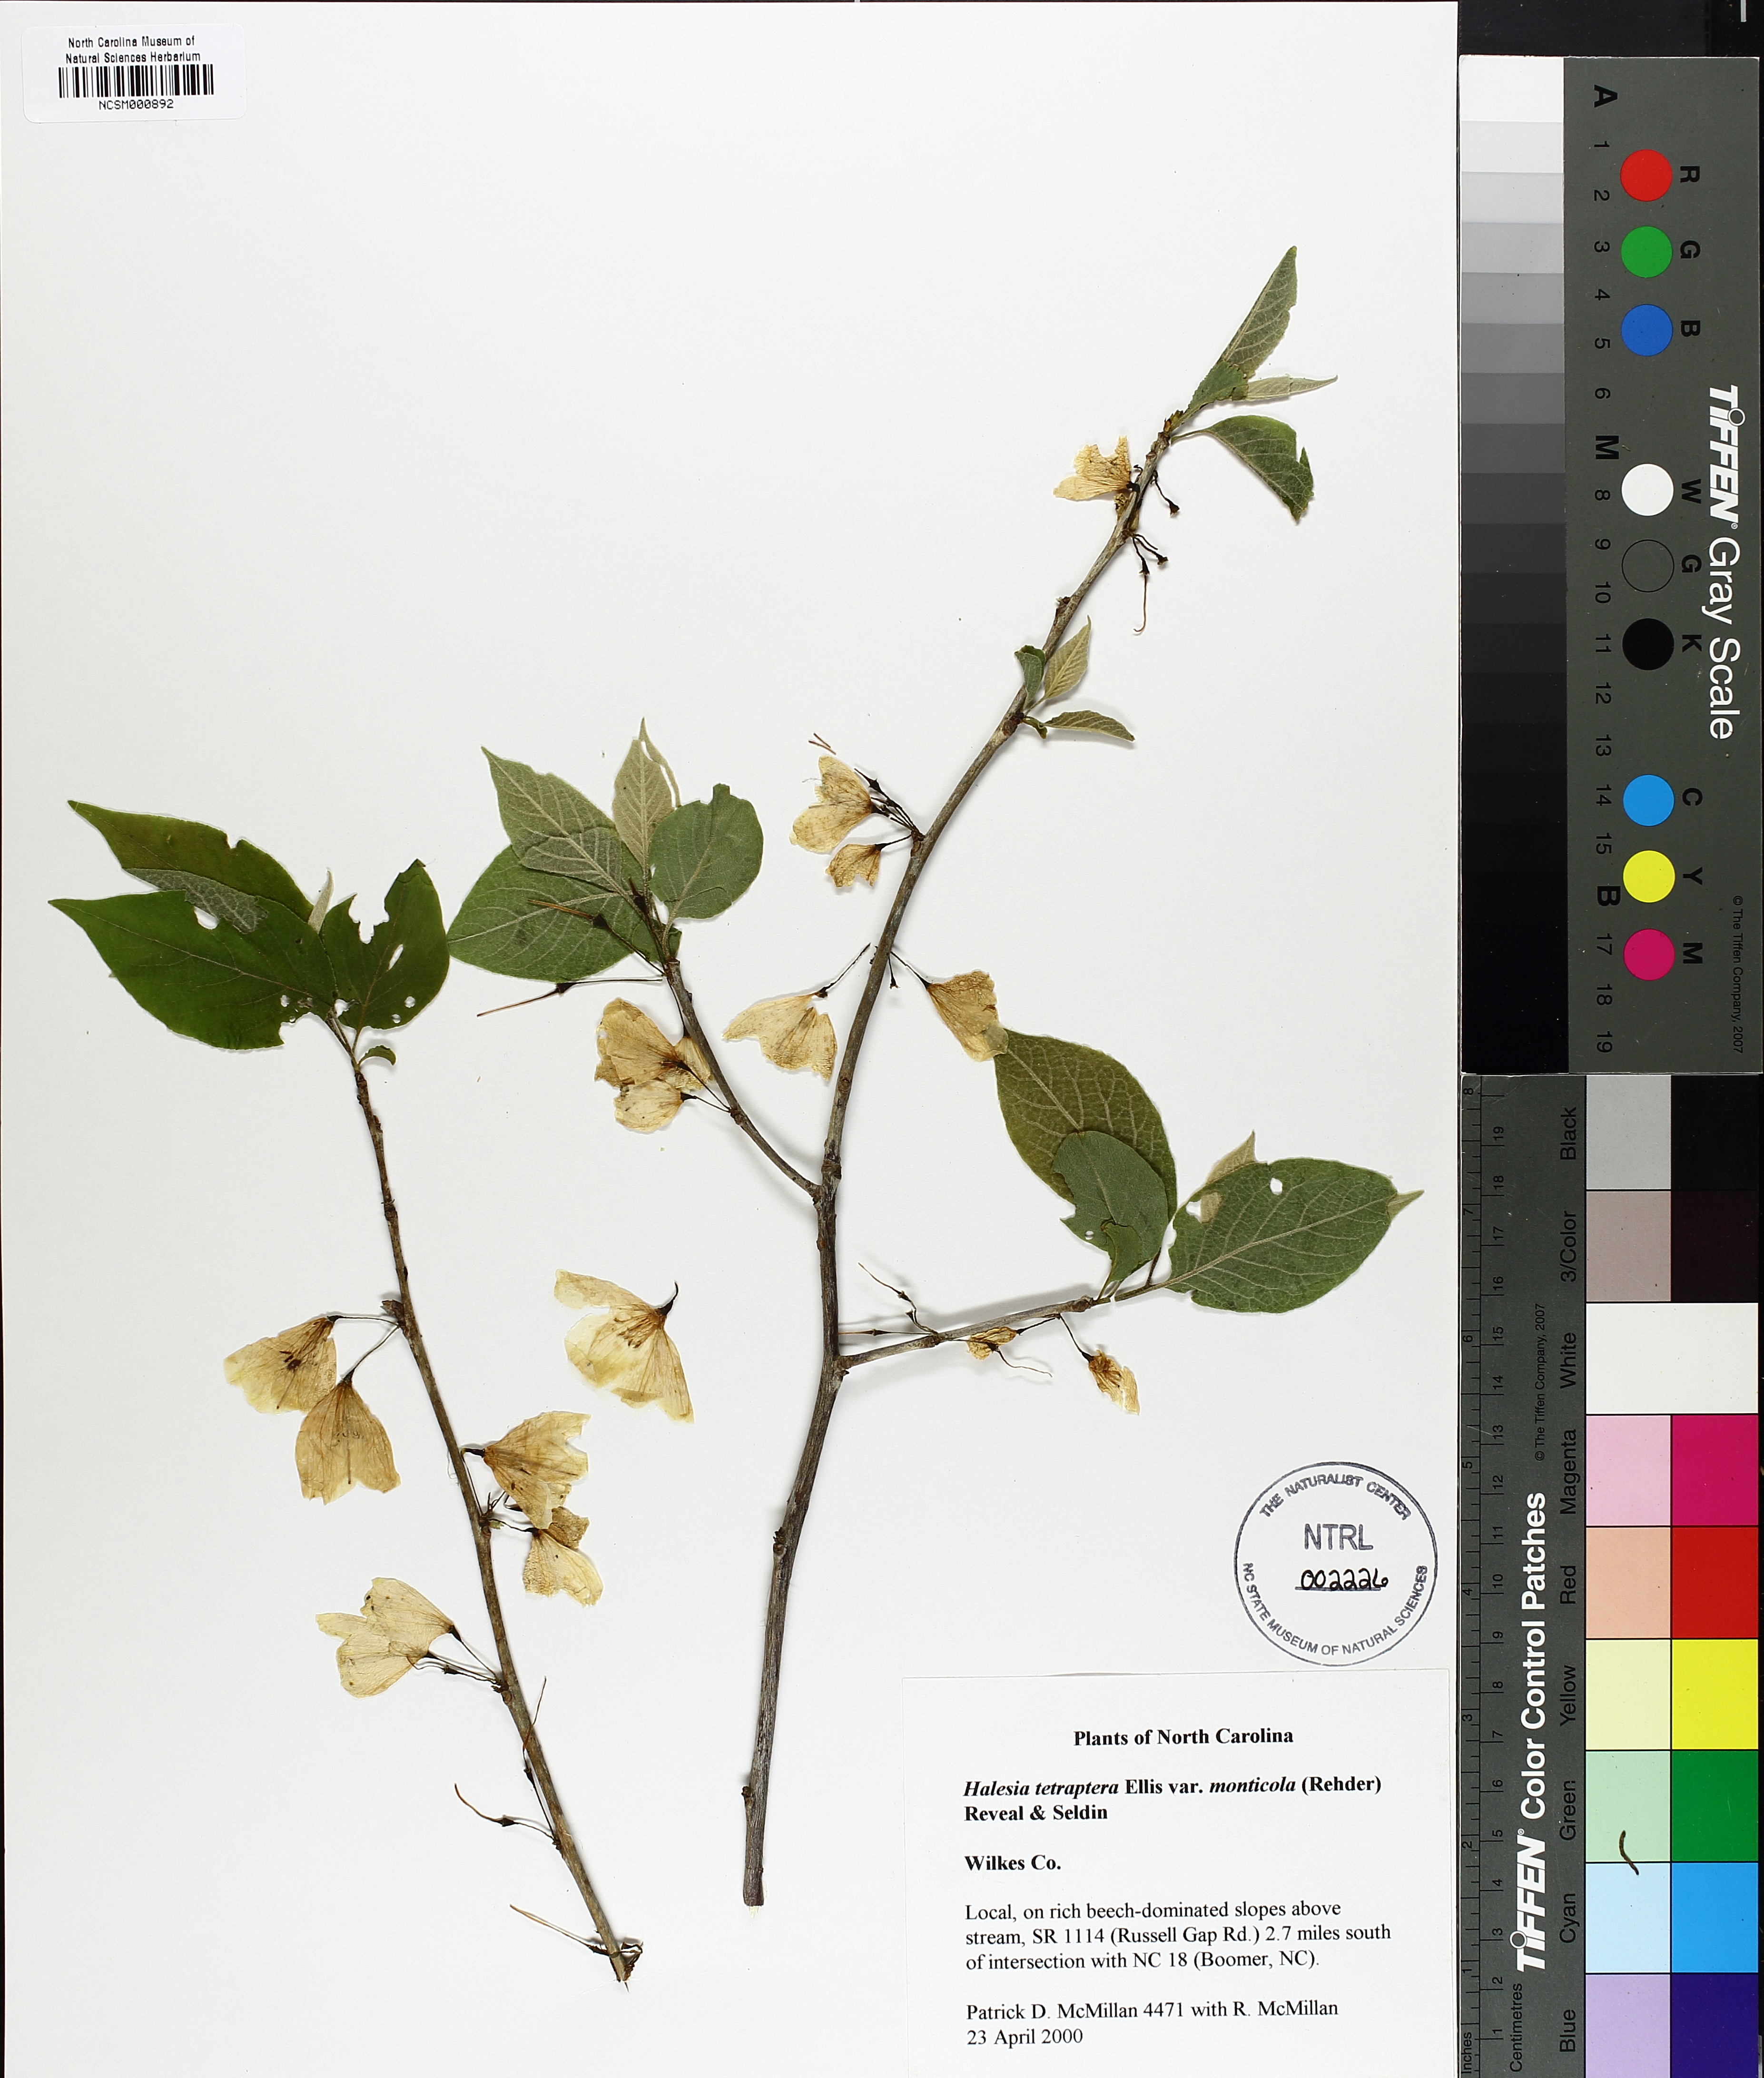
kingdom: Plantae
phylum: Tracheophyta
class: Magnoliopsida
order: Ericales
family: Styracaceae
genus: Halesia
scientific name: Halesia tetraptera
